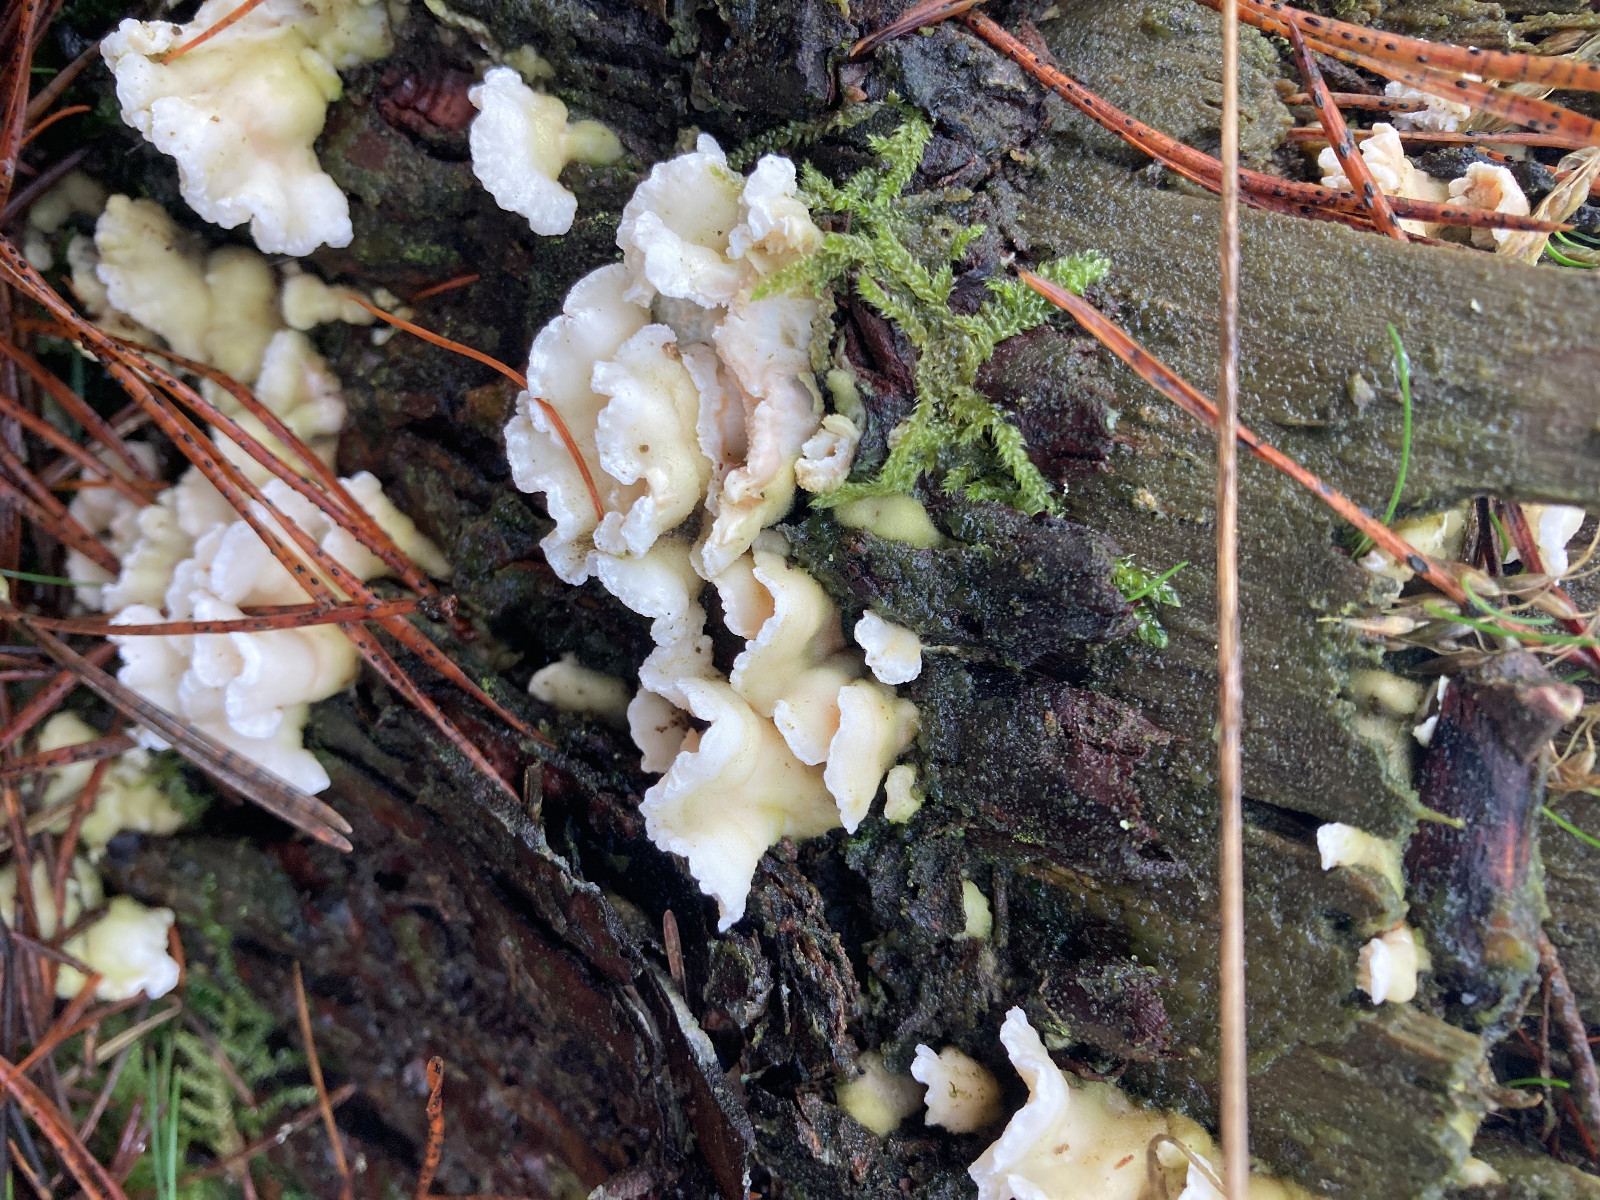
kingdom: Fungi
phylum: Basidiomycota
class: Agaricomycetes
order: Polyporales
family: Incrustoporiaceae
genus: Skeletocutis
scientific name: Skeletocutis amorpha
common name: orange krystalporesvamp
